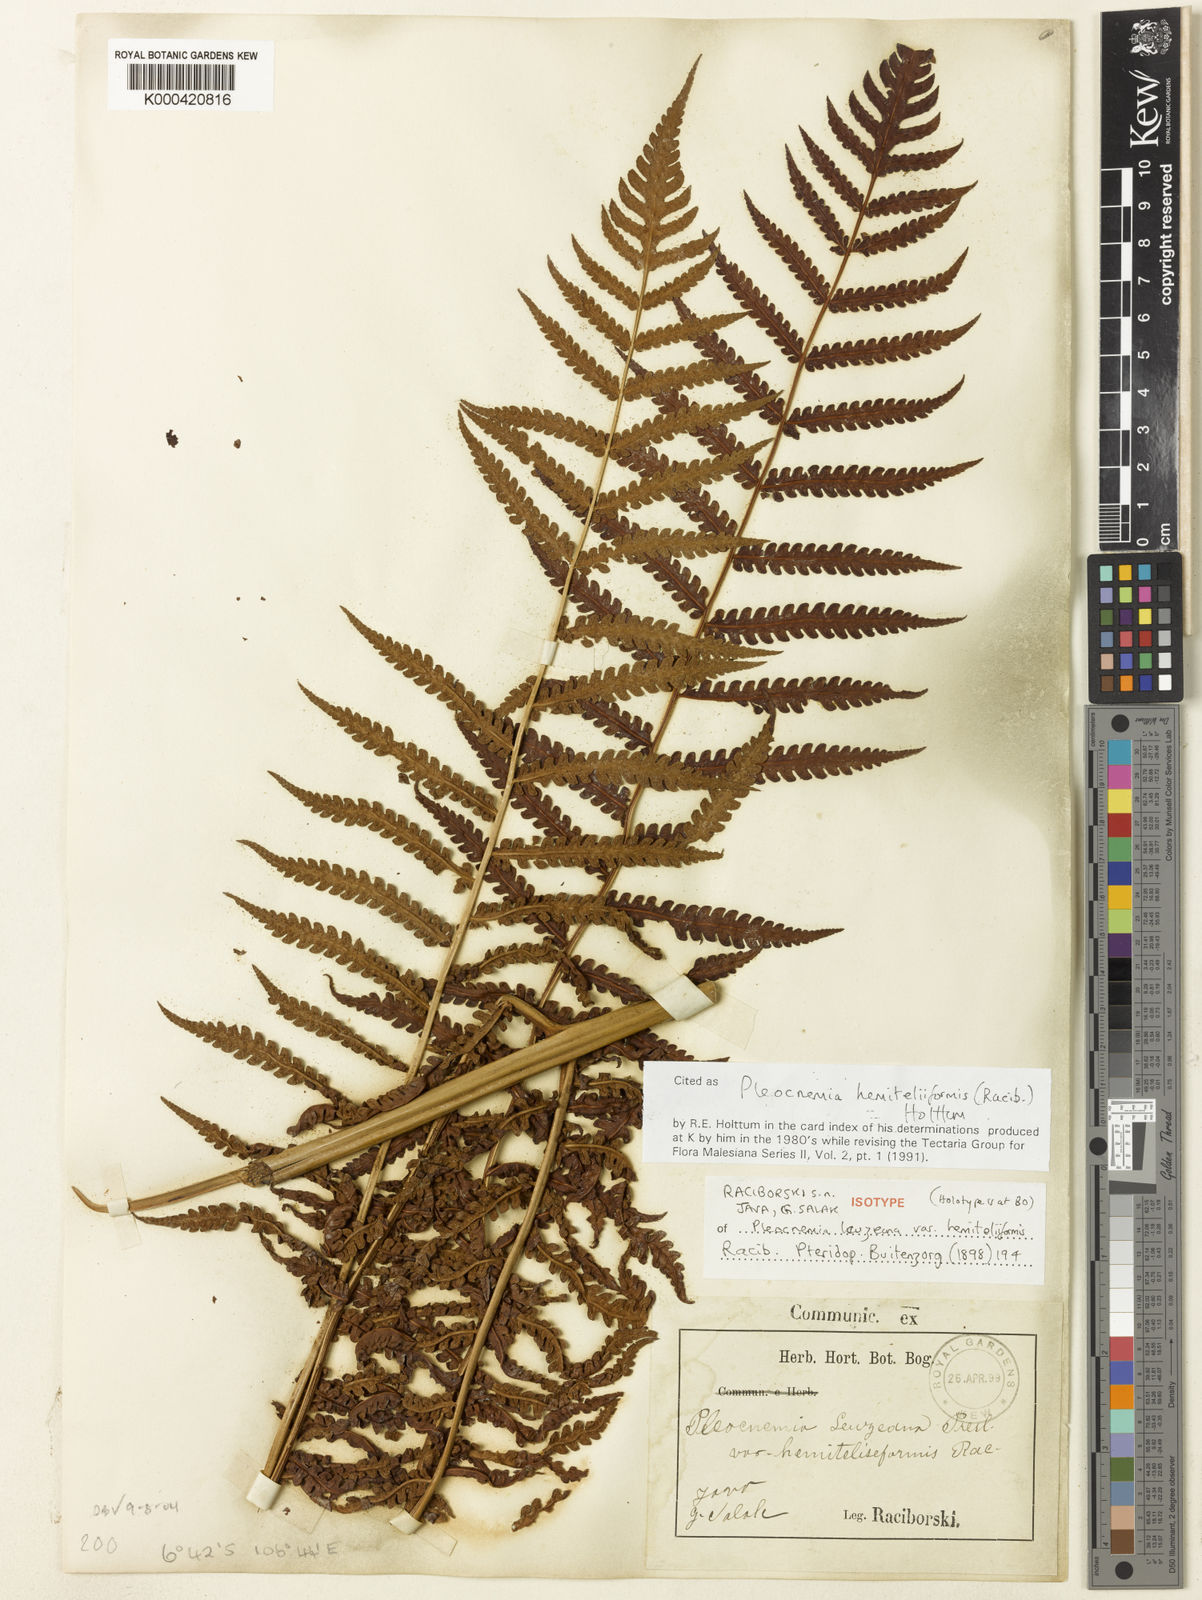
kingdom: Plantae
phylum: Tracheophyta
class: Polypodiopsida
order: Polypodiales
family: Dryopteridaceae
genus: Pleocnemia
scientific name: Pleocnemia hemiteliiformis
